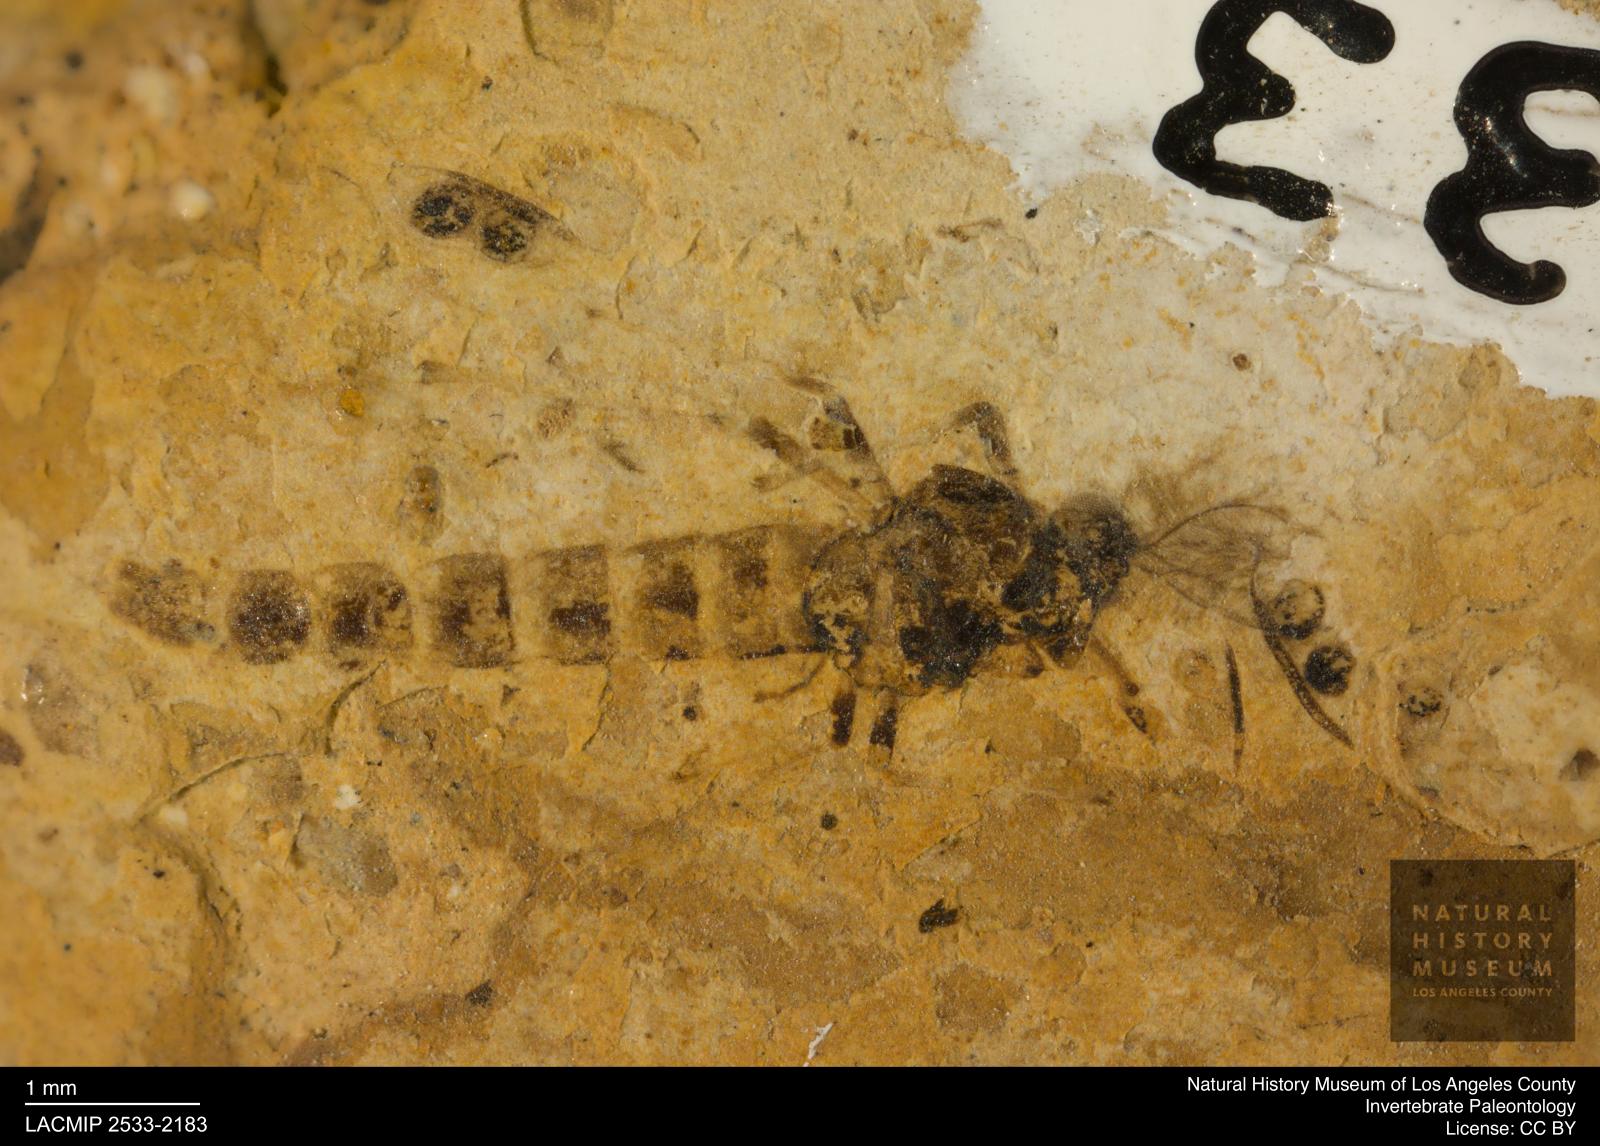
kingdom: Animalia
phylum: Arthropoda
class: Insecta
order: Diptera
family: Chironomidae
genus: Procladius
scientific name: Procladius
